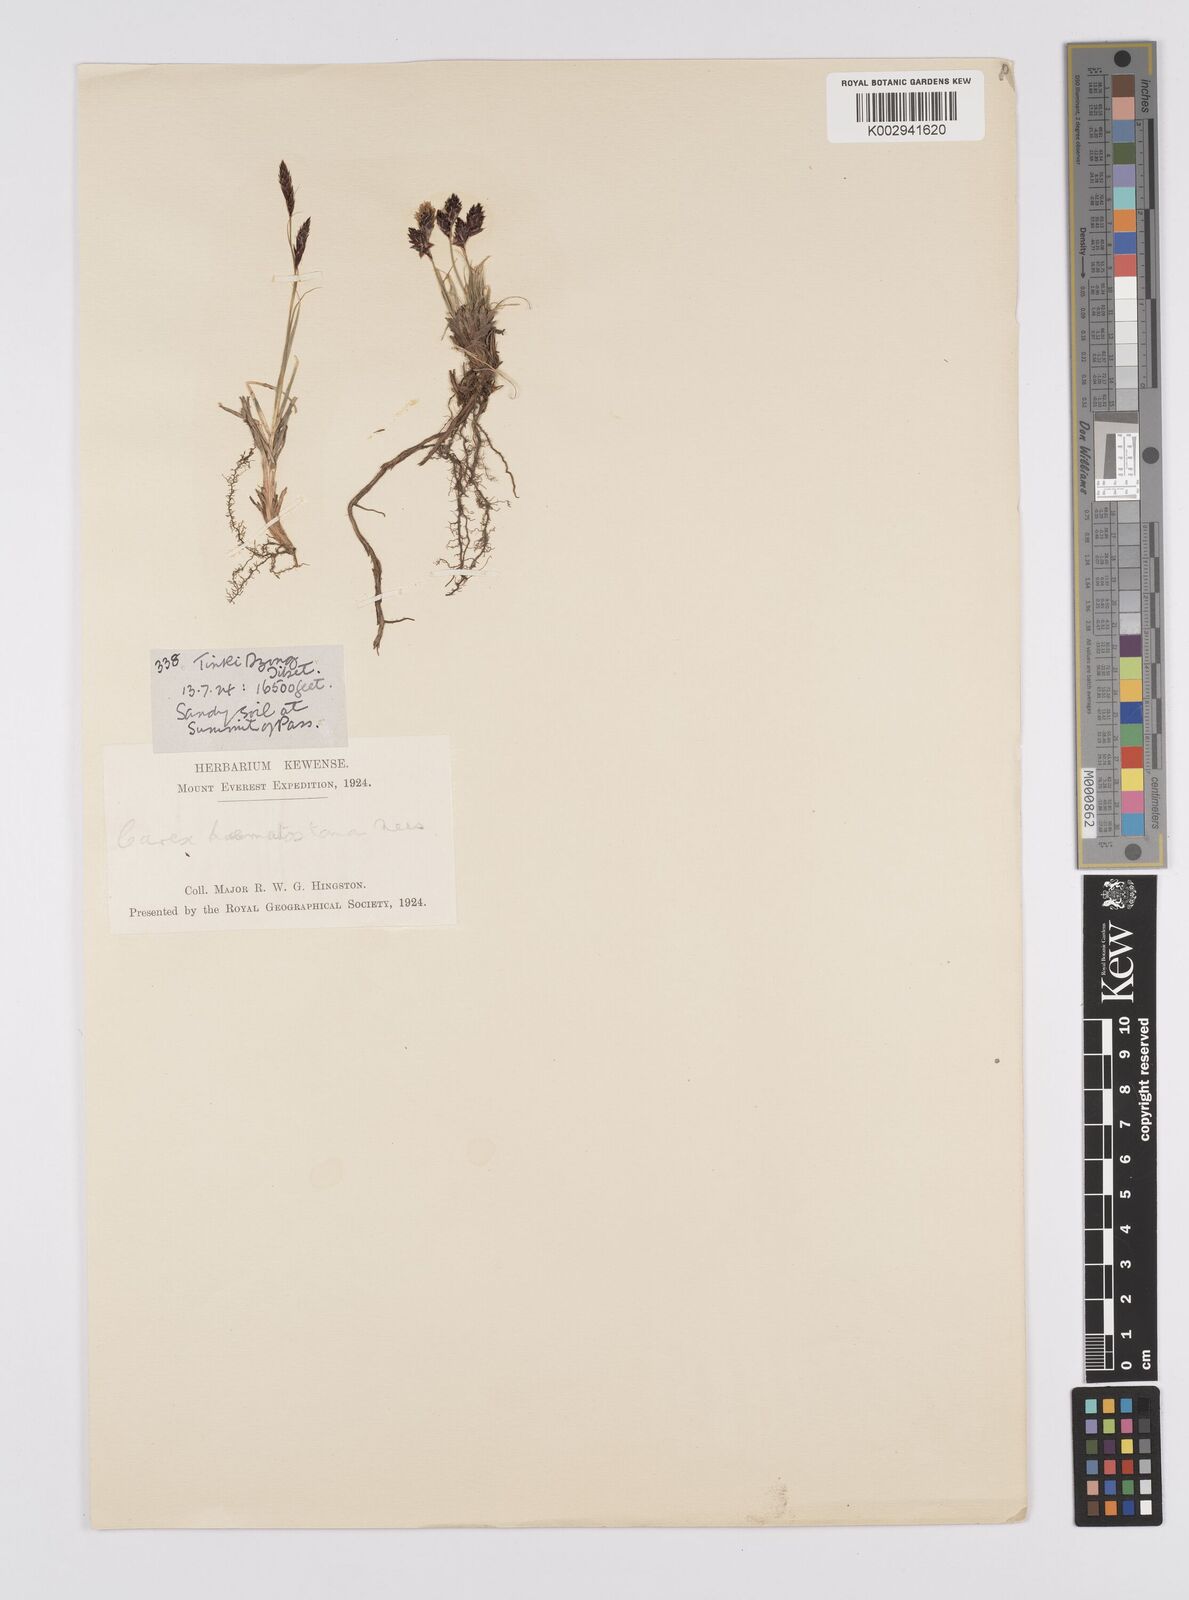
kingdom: Plantae
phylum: Tracheophyta
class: Liliopsida
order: Poales
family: Cyperaceae
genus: Carex
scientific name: Carex haematostoma
